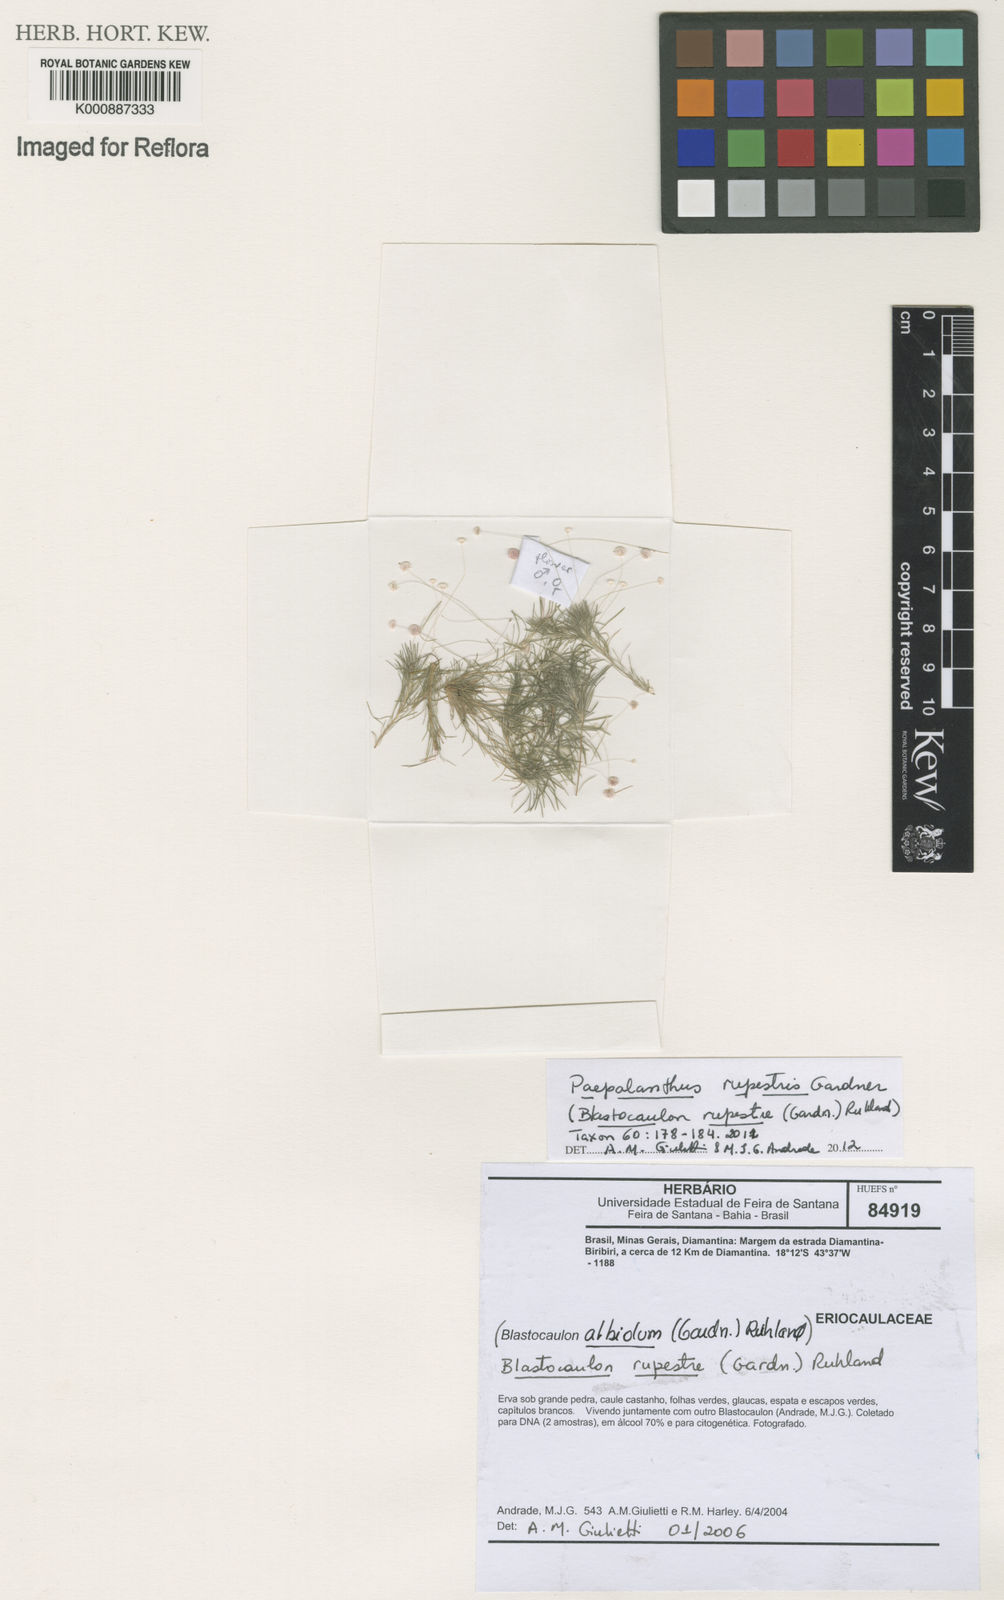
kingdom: Plantae
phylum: Tracheophyta
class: Liliopsida
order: Poales
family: Eriocaulaceae
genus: Paepalanthus
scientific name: Paepalanthus rupestris
